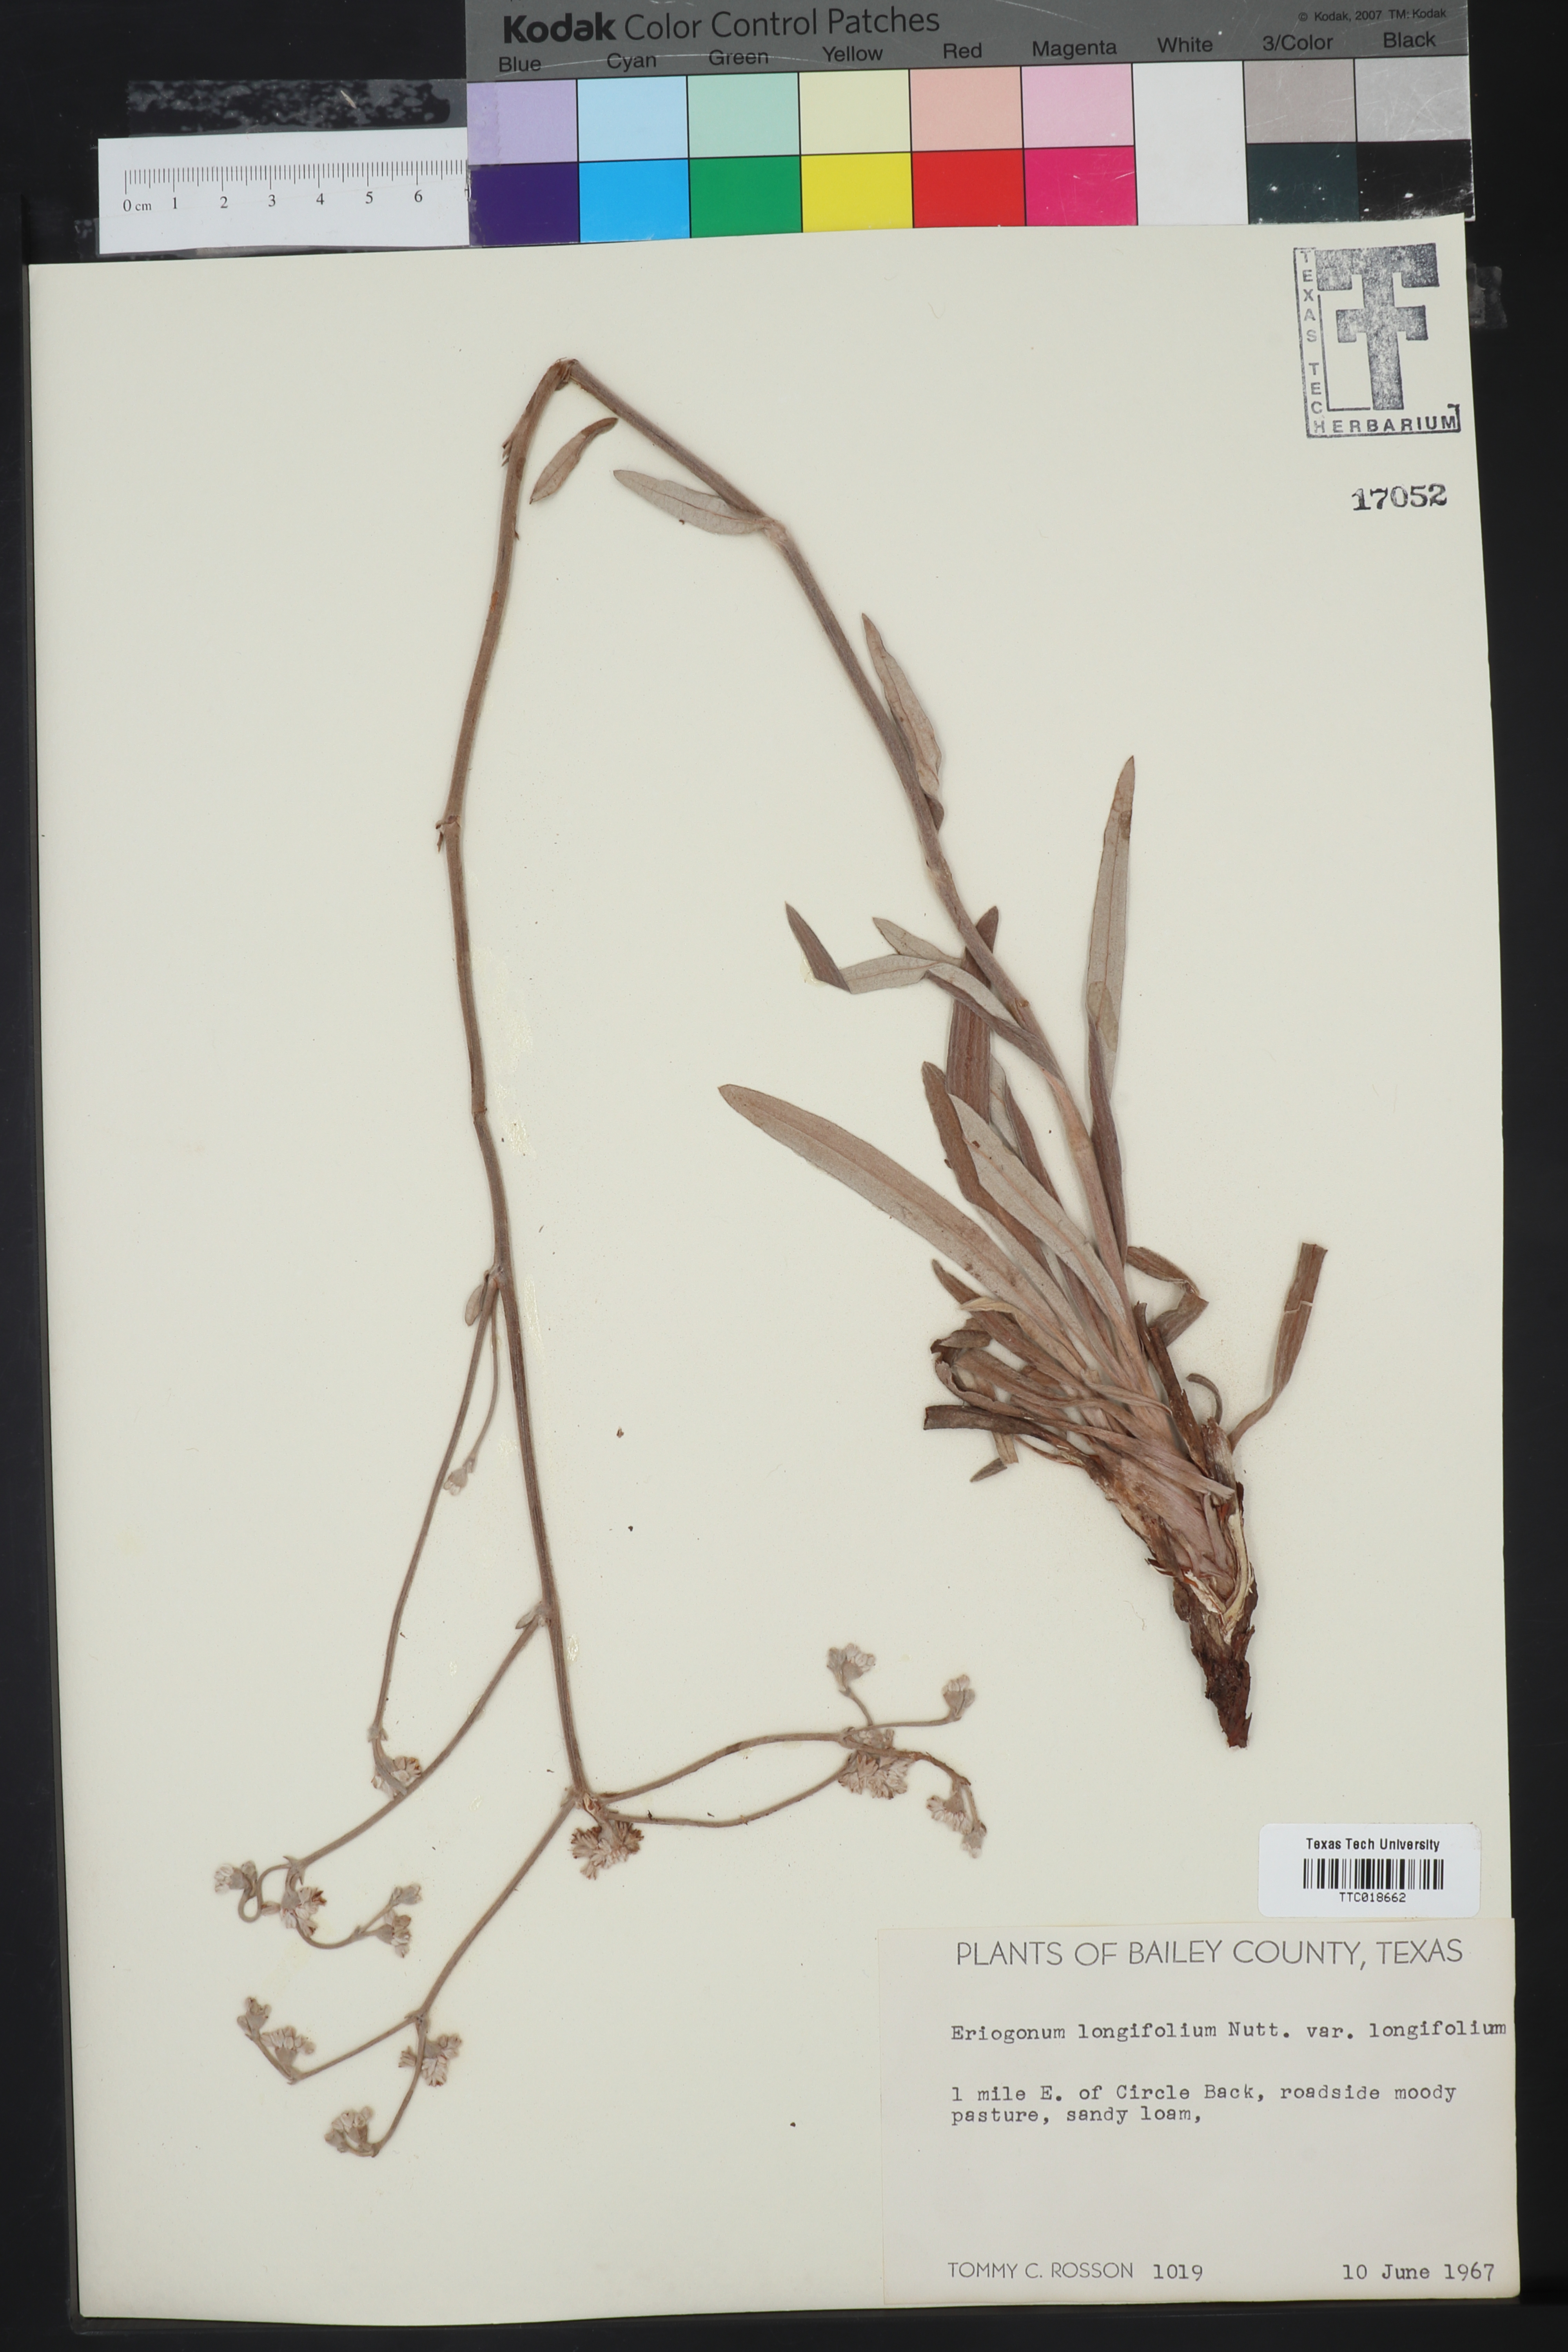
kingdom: Plantae
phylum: Tracheophyta
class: Magnoliopsida
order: Caryophyllales
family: Polygonaceae
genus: Eriogonum
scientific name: Eriogonum longifolium
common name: Longleaf wild buckwheat
